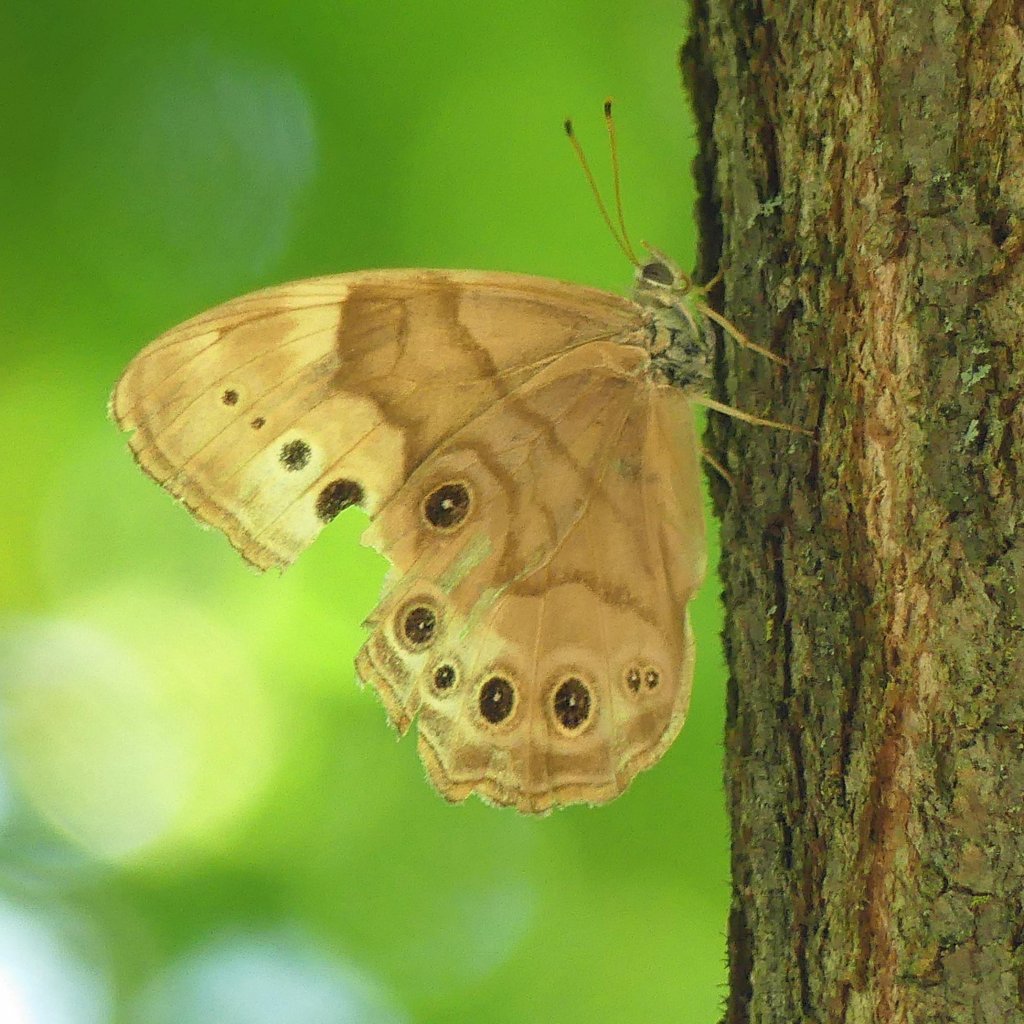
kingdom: Animalia
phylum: Arthropoda
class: Insecta
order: Lepidoptera
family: Nymphalidae
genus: Lethe
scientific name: Lethe anthedon
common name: Northern Pearly-Eye
